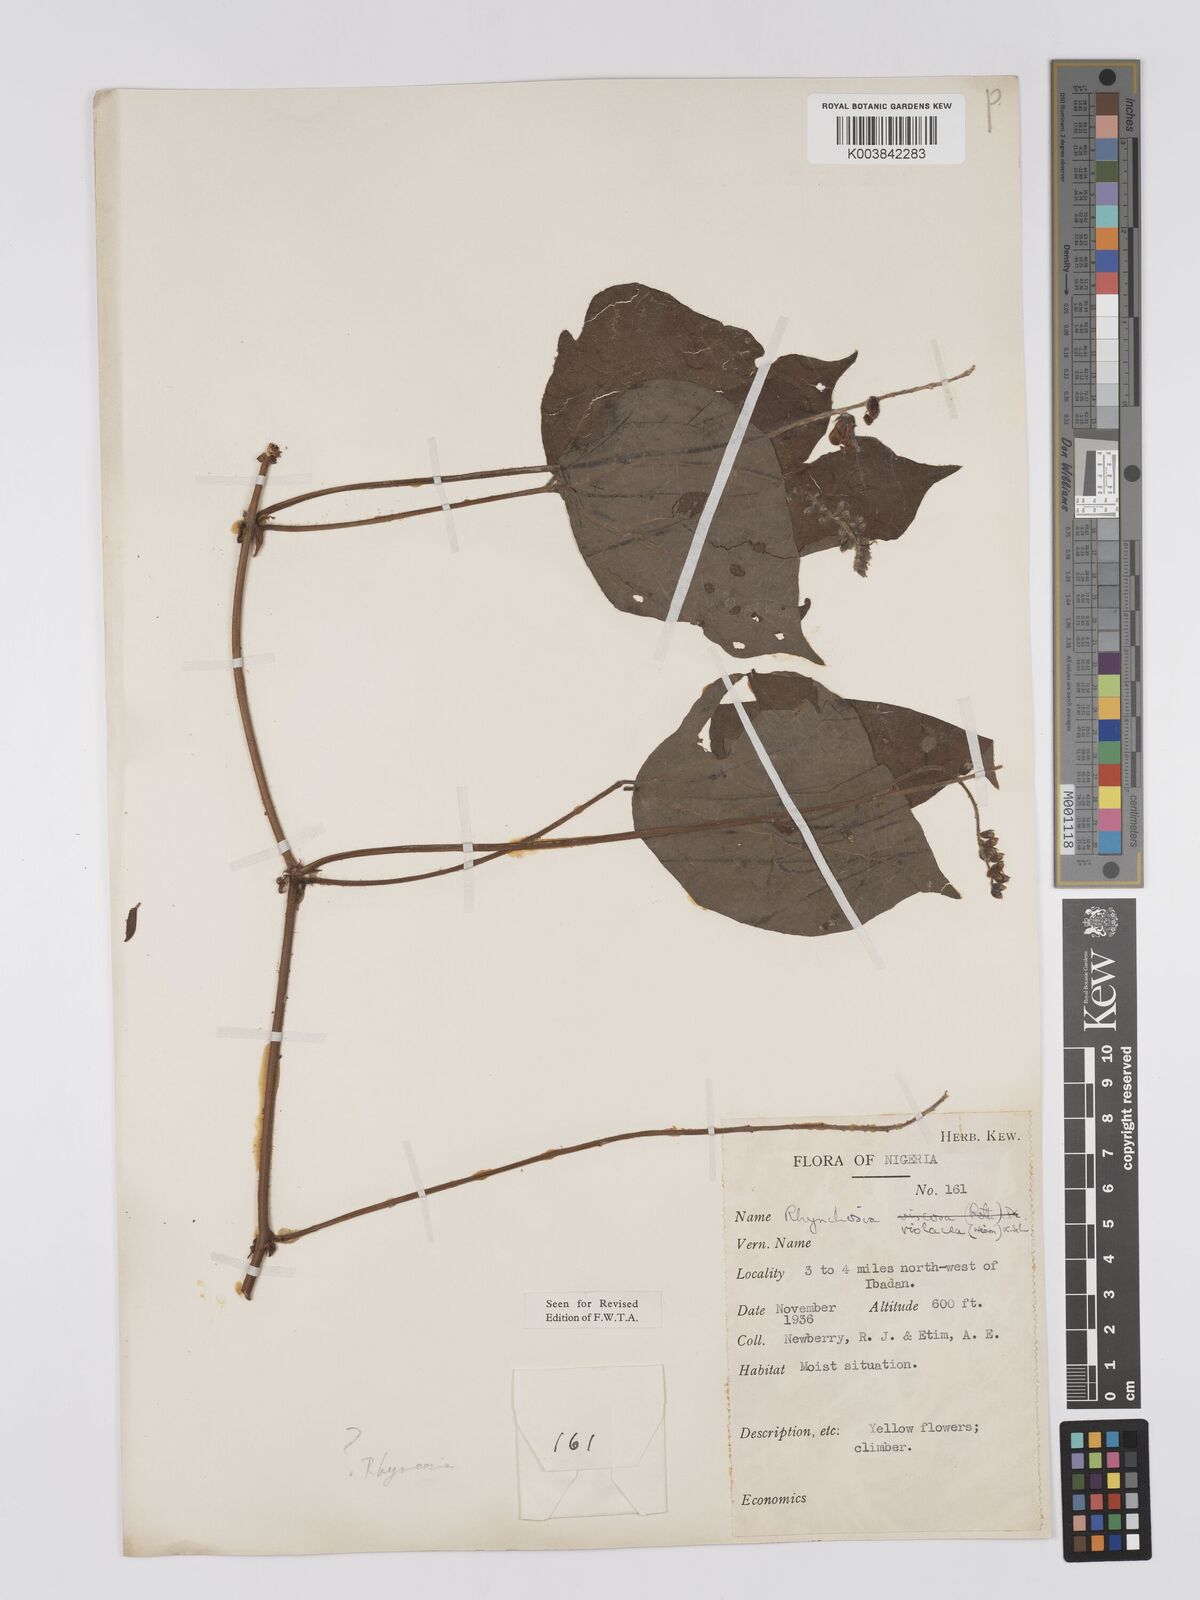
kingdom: Plantae
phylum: Tracheophyta
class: Magnoliopsida
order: Fabales
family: Fabaceae
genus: Rhynchosia
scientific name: Rhynchosia viscosa
